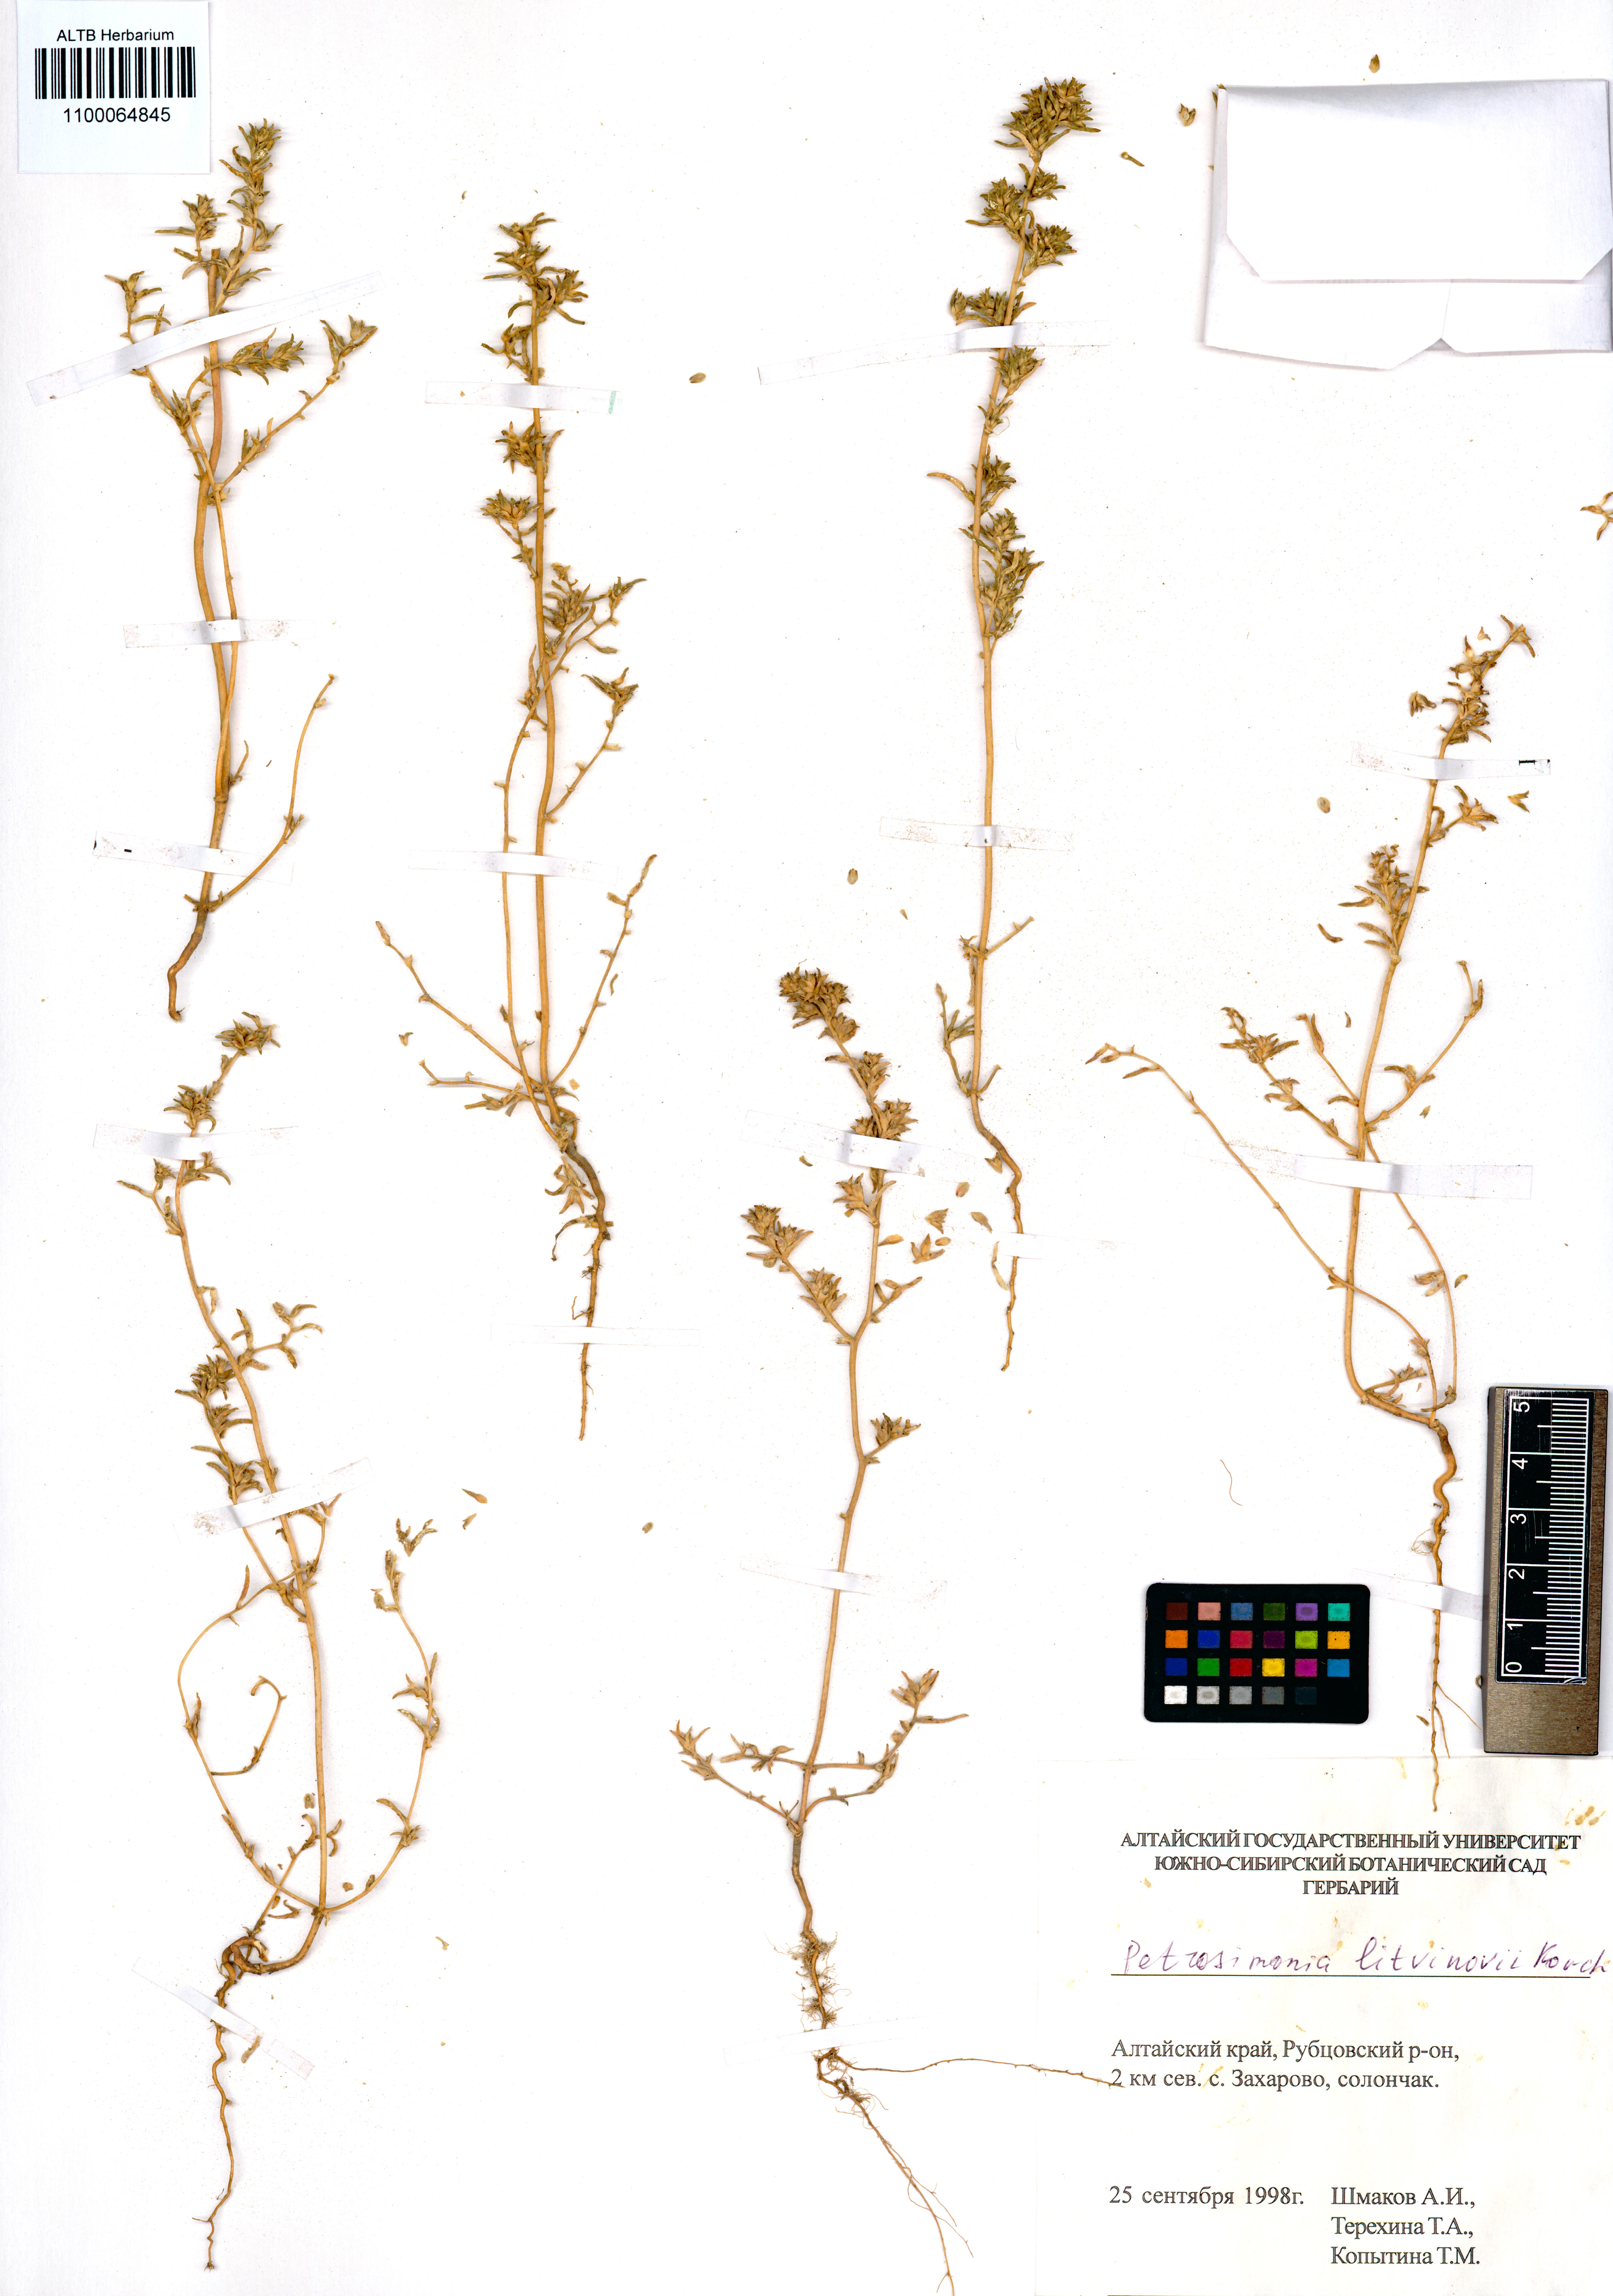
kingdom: Plantae
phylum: Tracheophyta
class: Magnoliopsida
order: Caryophyllales
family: Amaranthaceae
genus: Petrosimonia
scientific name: Petrosimonia litvinowi
